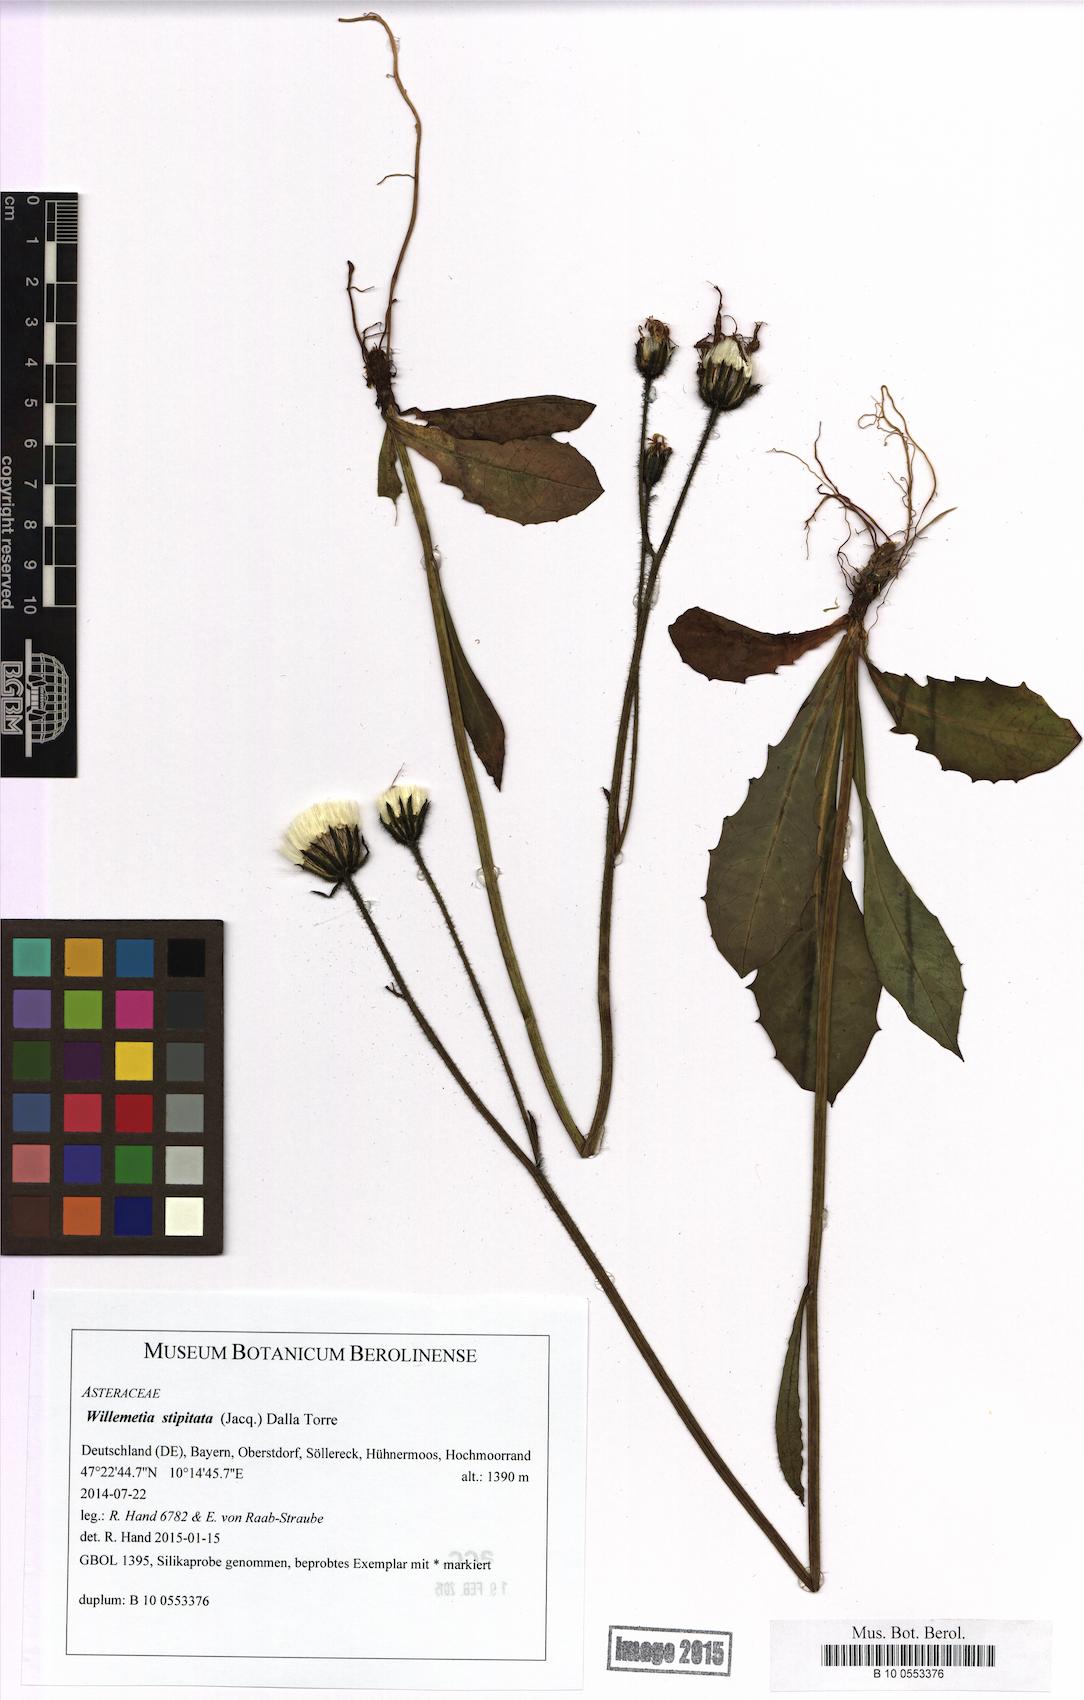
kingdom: Plantae
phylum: Tracheophyta
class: Magnoliopsida
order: Asterales
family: Asteraceae
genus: Willemetia
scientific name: Willemetia stipitata
